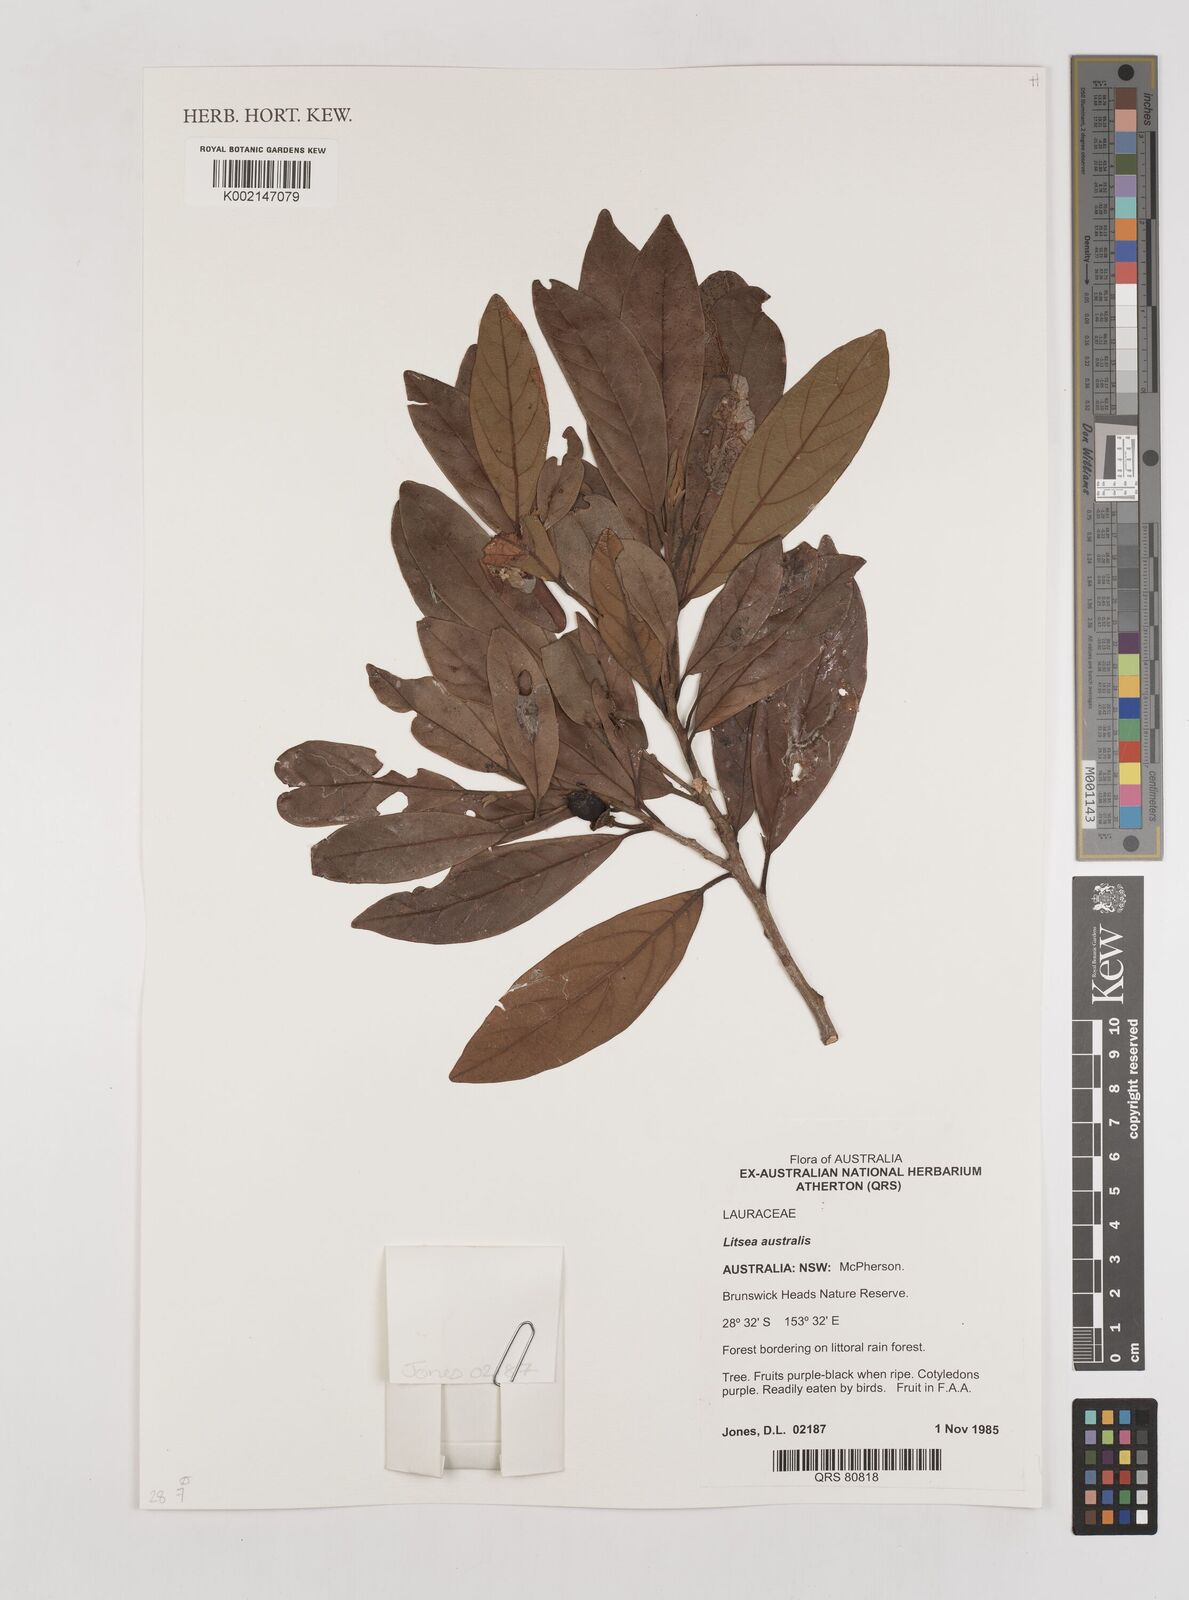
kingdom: Plantae
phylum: Tracheophyta
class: Magnoliopsida
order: Laurales
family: Lauraceae
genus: Litsea
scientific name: Litsea australis
